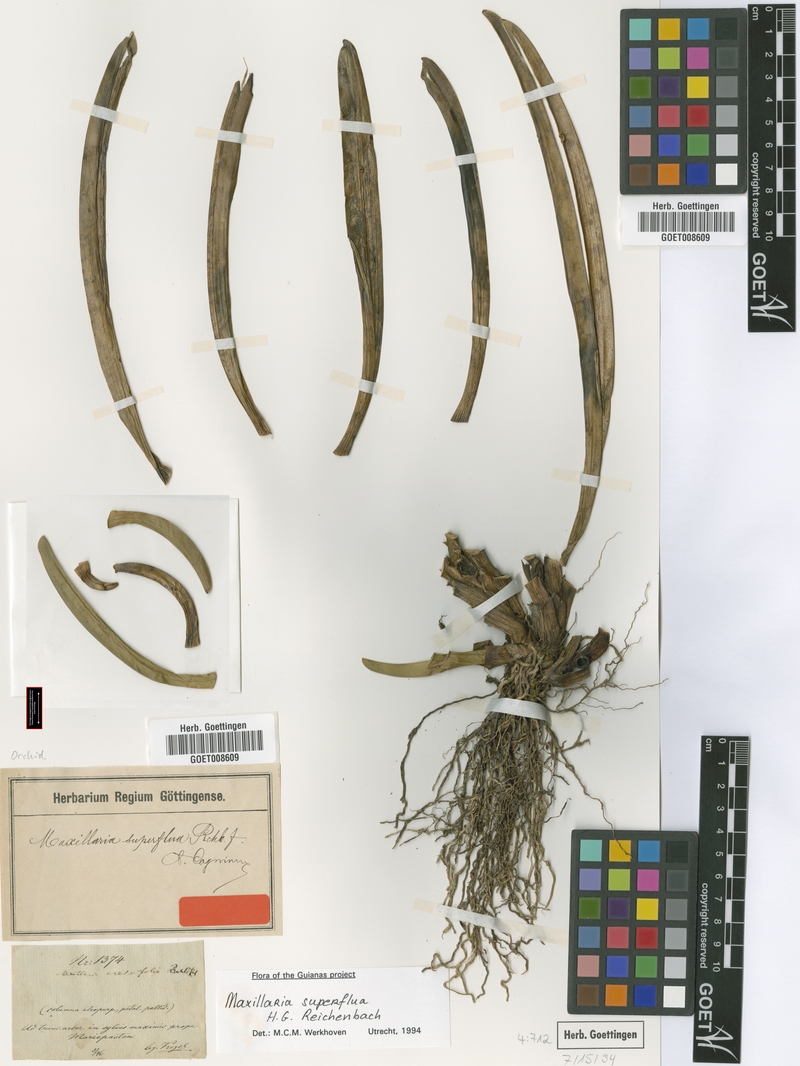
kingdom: Plantae
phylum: Tracheophyta
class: Liliopsida
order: Asparagales
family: Orchidaceae
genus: Maxillaria
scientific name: Maxillaria superflua
